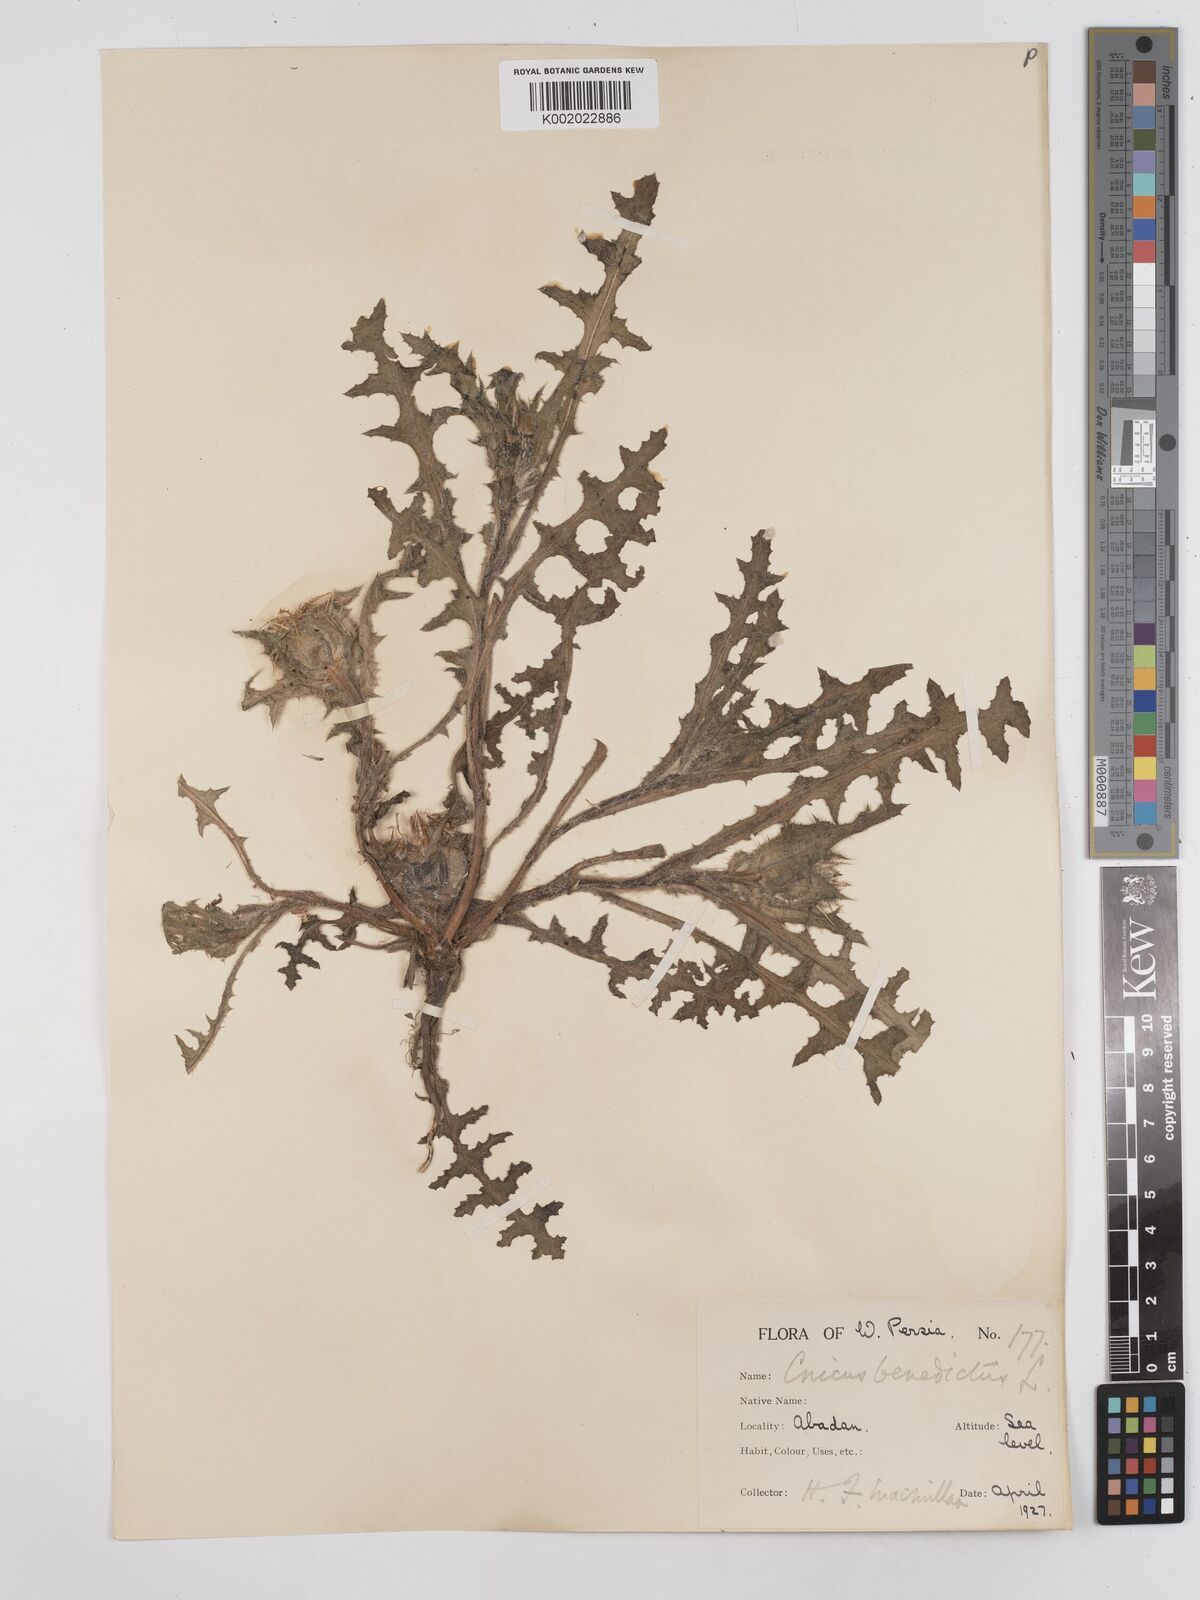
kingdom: Plantae
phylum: Tracheophyta
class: Magnoliopsida
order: Asterales
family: Asteraceae
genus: Centaurea
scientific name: Centaurea benedicta
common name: Blessed thistle
